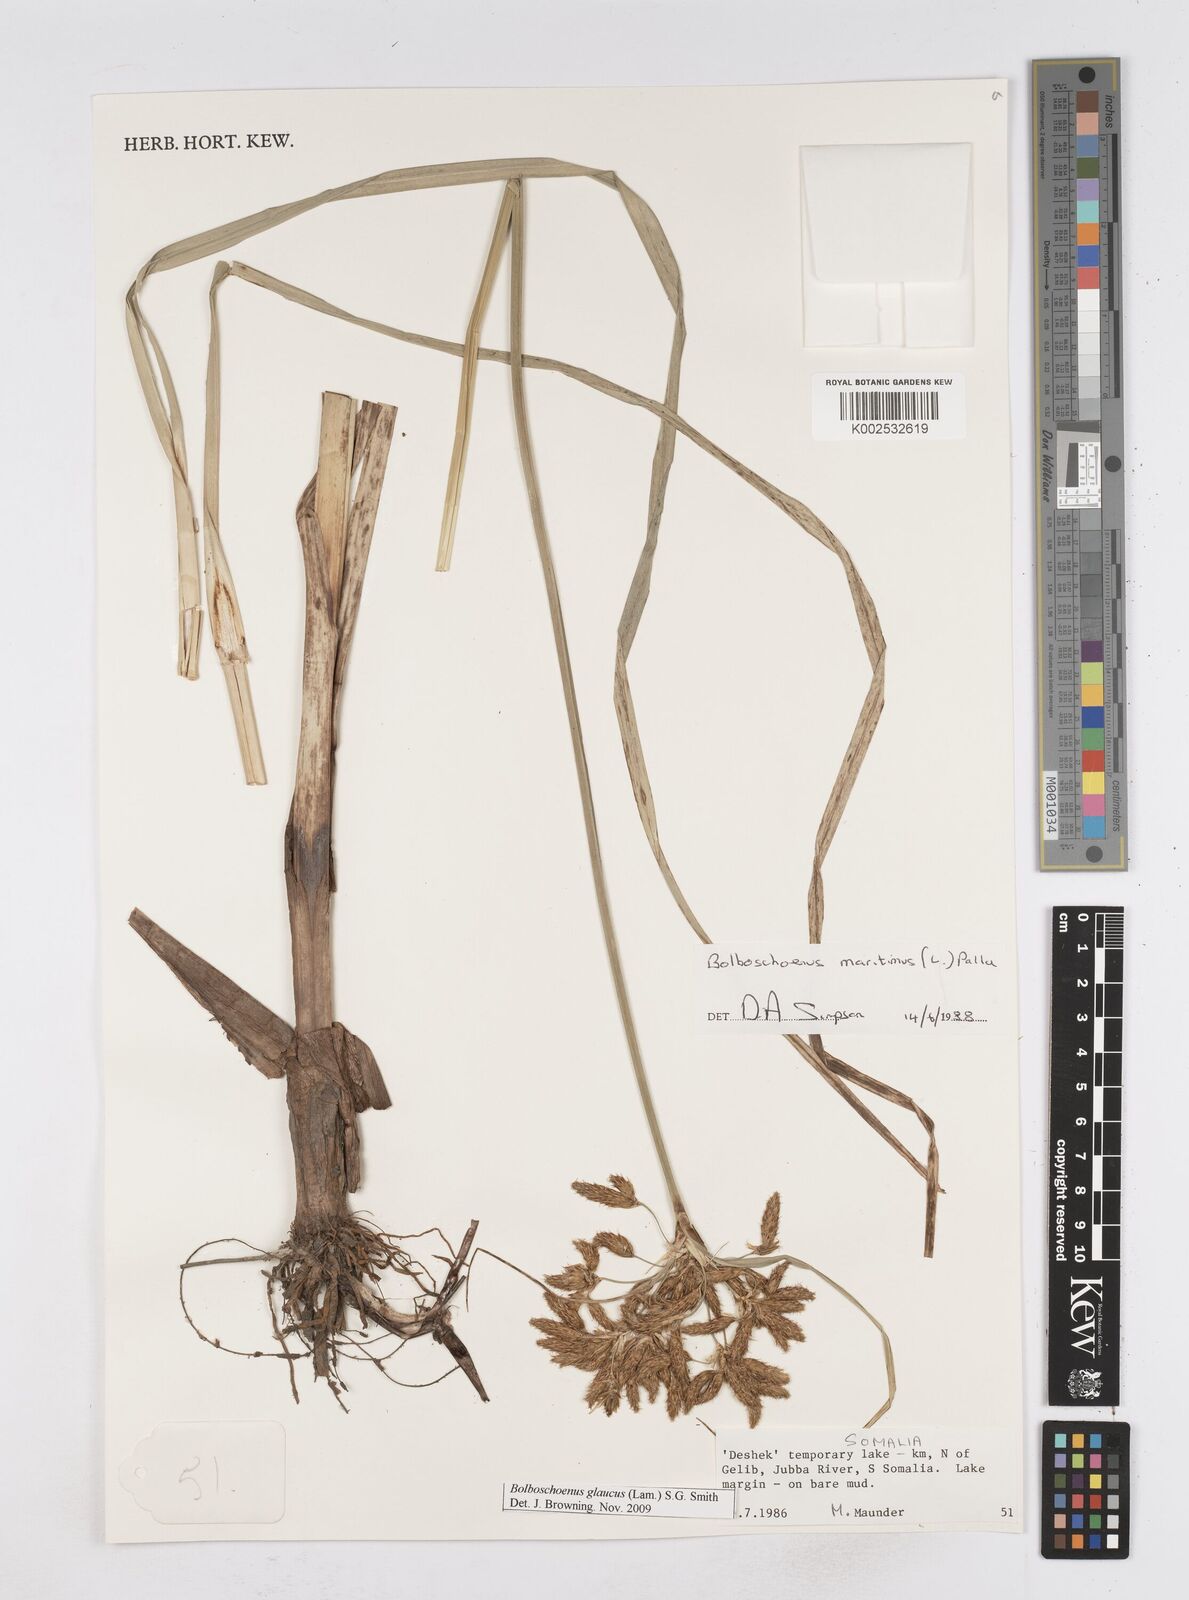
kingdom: Plantae
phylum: Tracheophyta
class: Liliopsida
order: Poales
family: Cyperaceae
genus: Bolboschoenus
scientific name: Bolboschoenus glaucus
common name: Tuberous bulrush
